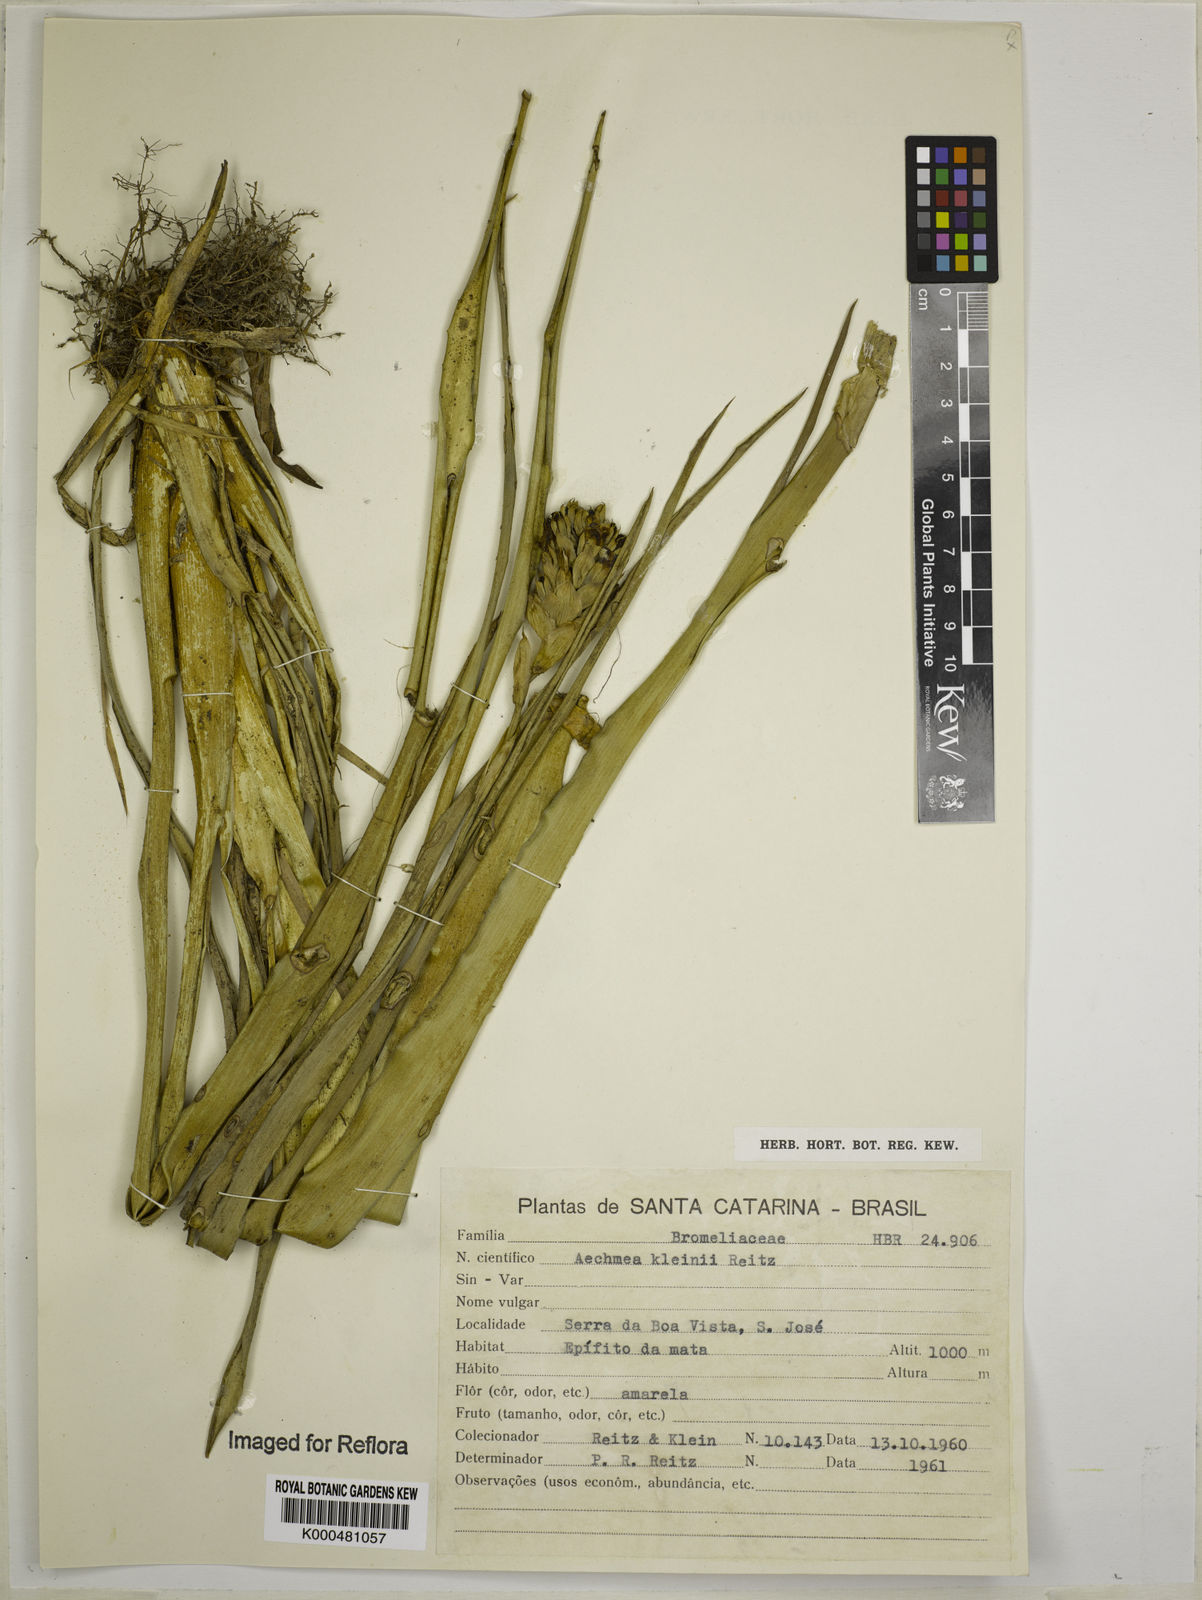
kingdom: Plantae
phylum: Tracheophyta
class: Liliopsida
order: Poales
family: Bromeliaceae
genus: Aechmea
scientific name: Aechmea kleinii
